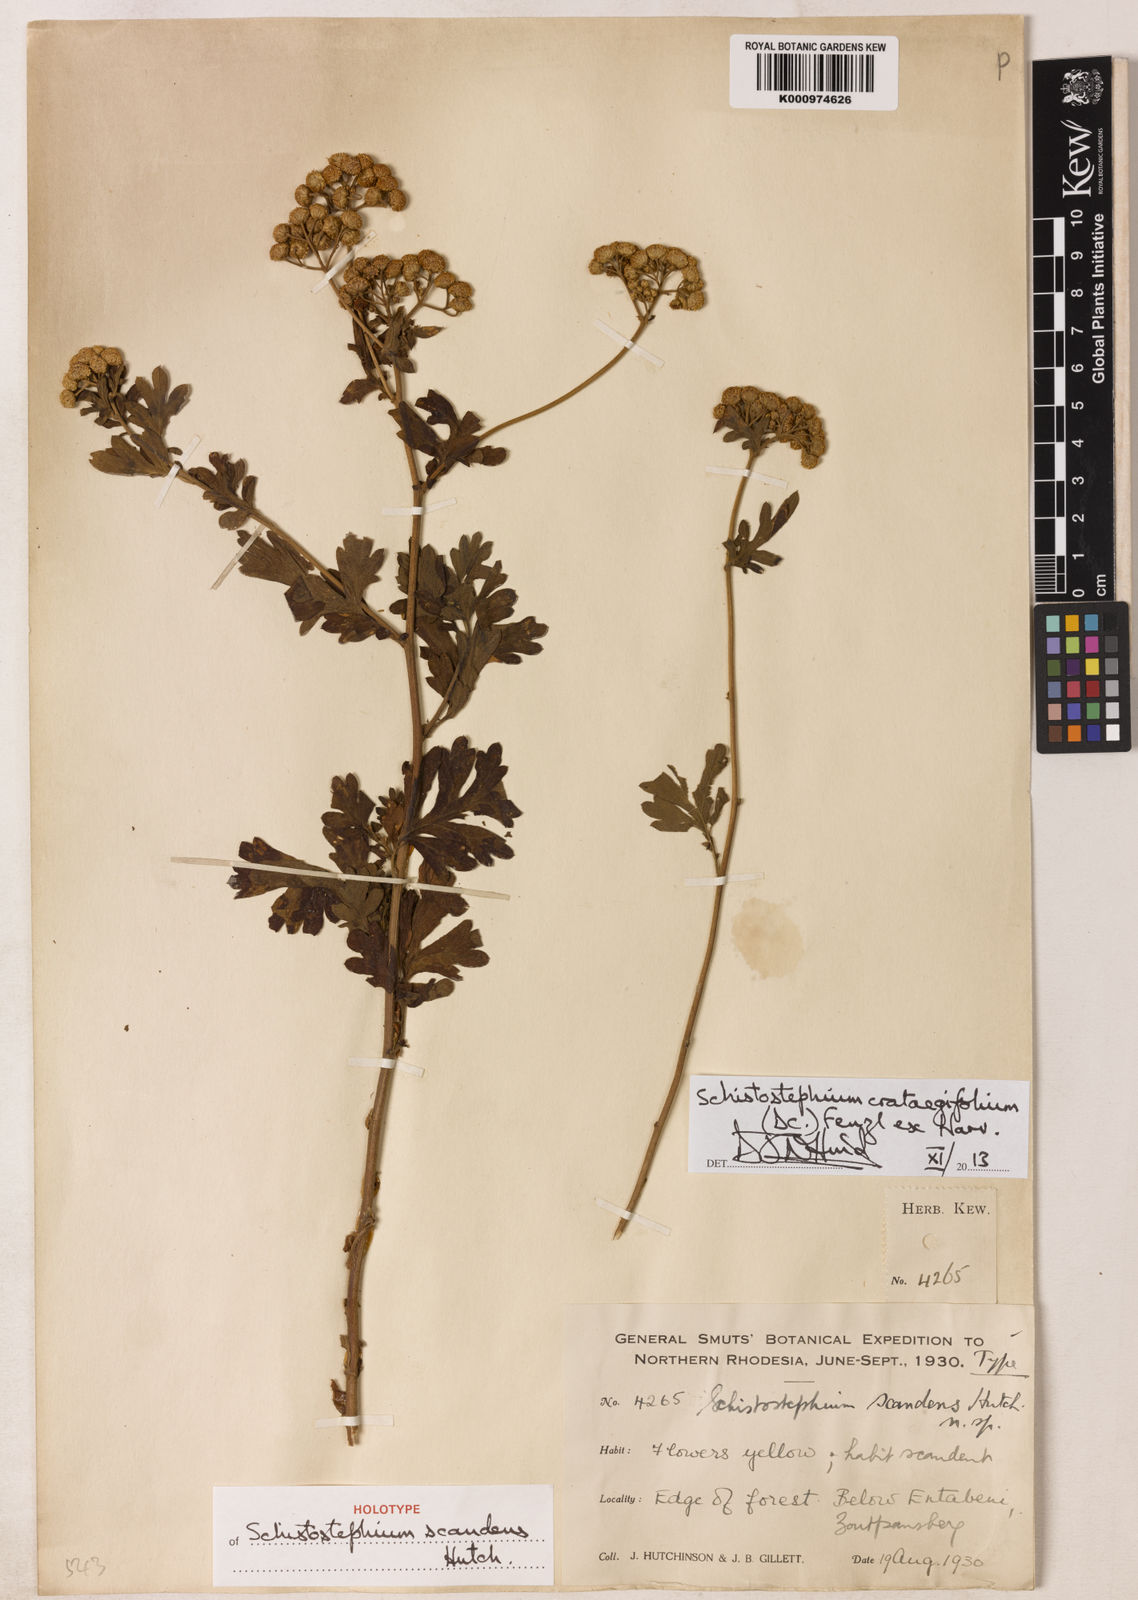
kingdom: Plantae
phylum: Tracheophyta
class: Magnoliopsida
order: Asterales
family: Asteraceae
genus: Schistostephium
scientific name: Schistostephium crataegifolium
